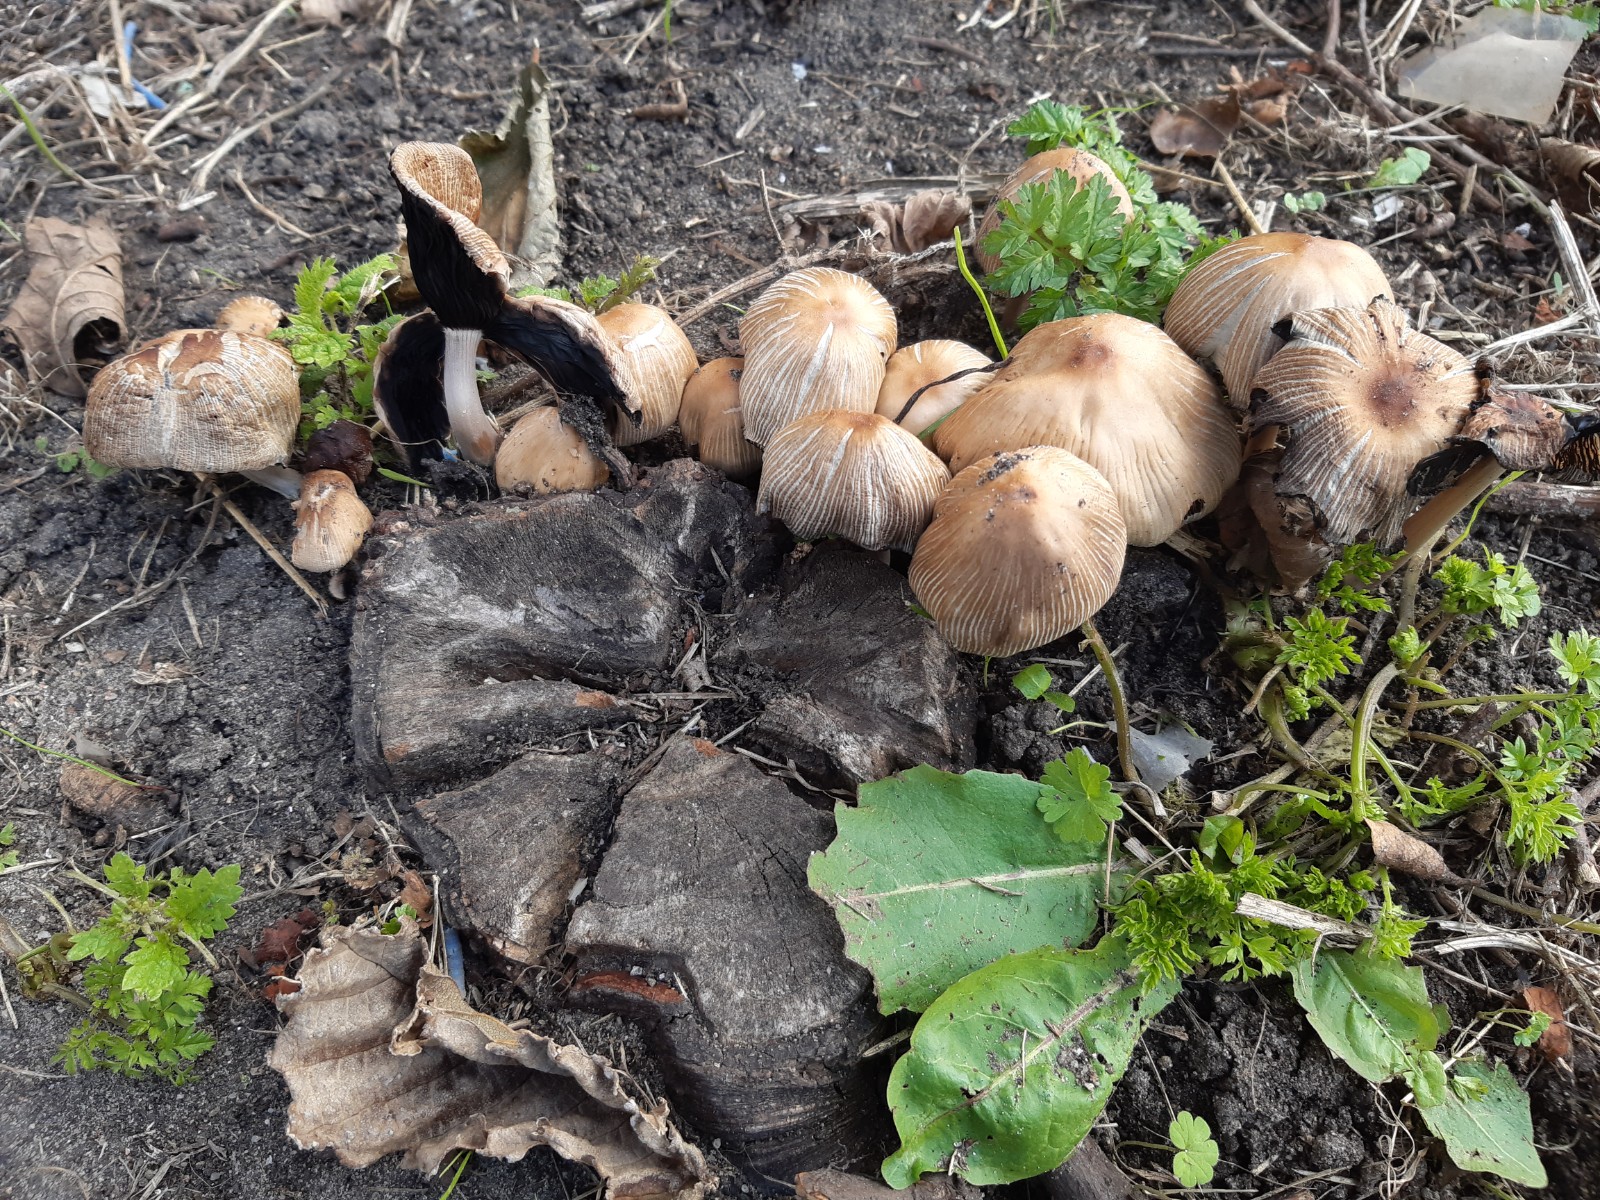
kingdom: Fungi
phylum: Basidiomycota
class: Agaricomycetes
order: Agaricales
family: Psathyrellaceae
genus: Coprinellus
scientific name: Coprinellus micaceus
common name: glimmer-blækhat
